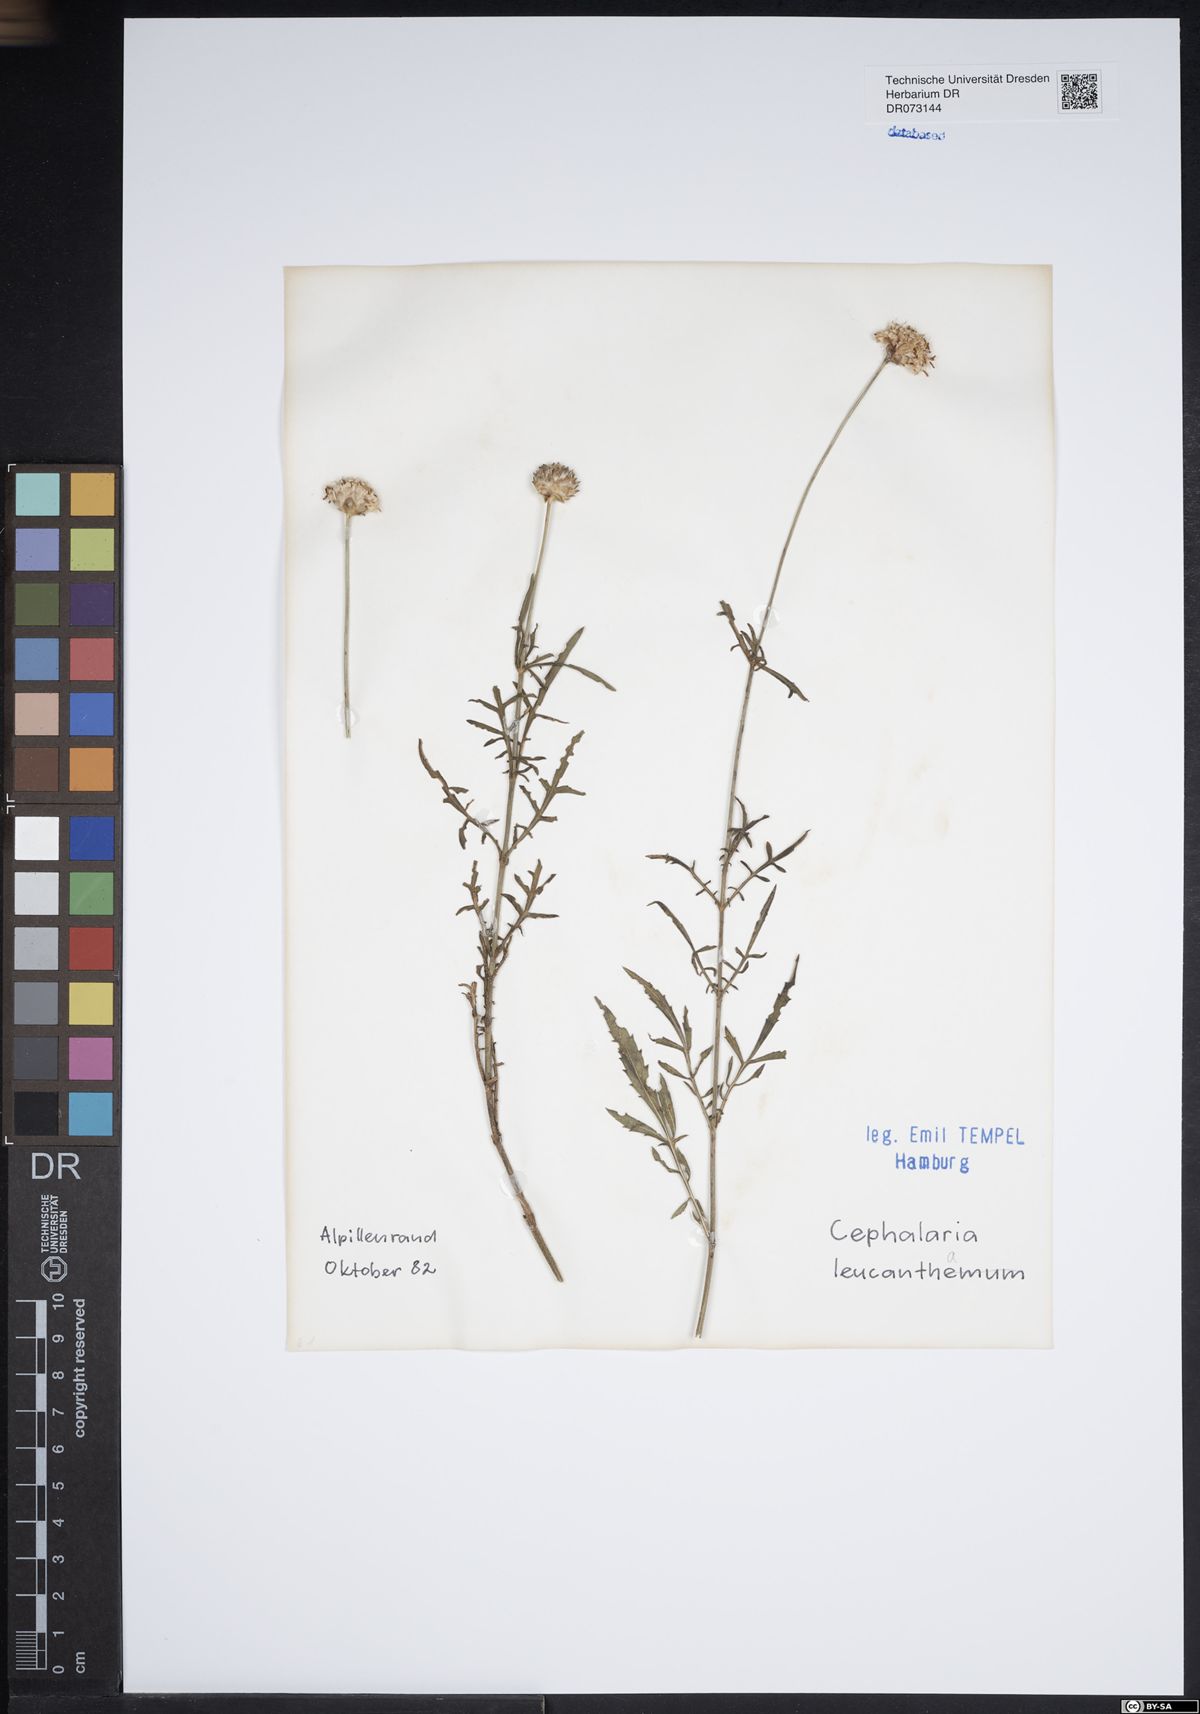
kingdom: Plantae
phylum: Tracheophyta
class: Magnoliopsida
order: Dipsacales
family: Caprifoliaceae
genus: Cephalaria
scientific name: Cephalaria leucantha
